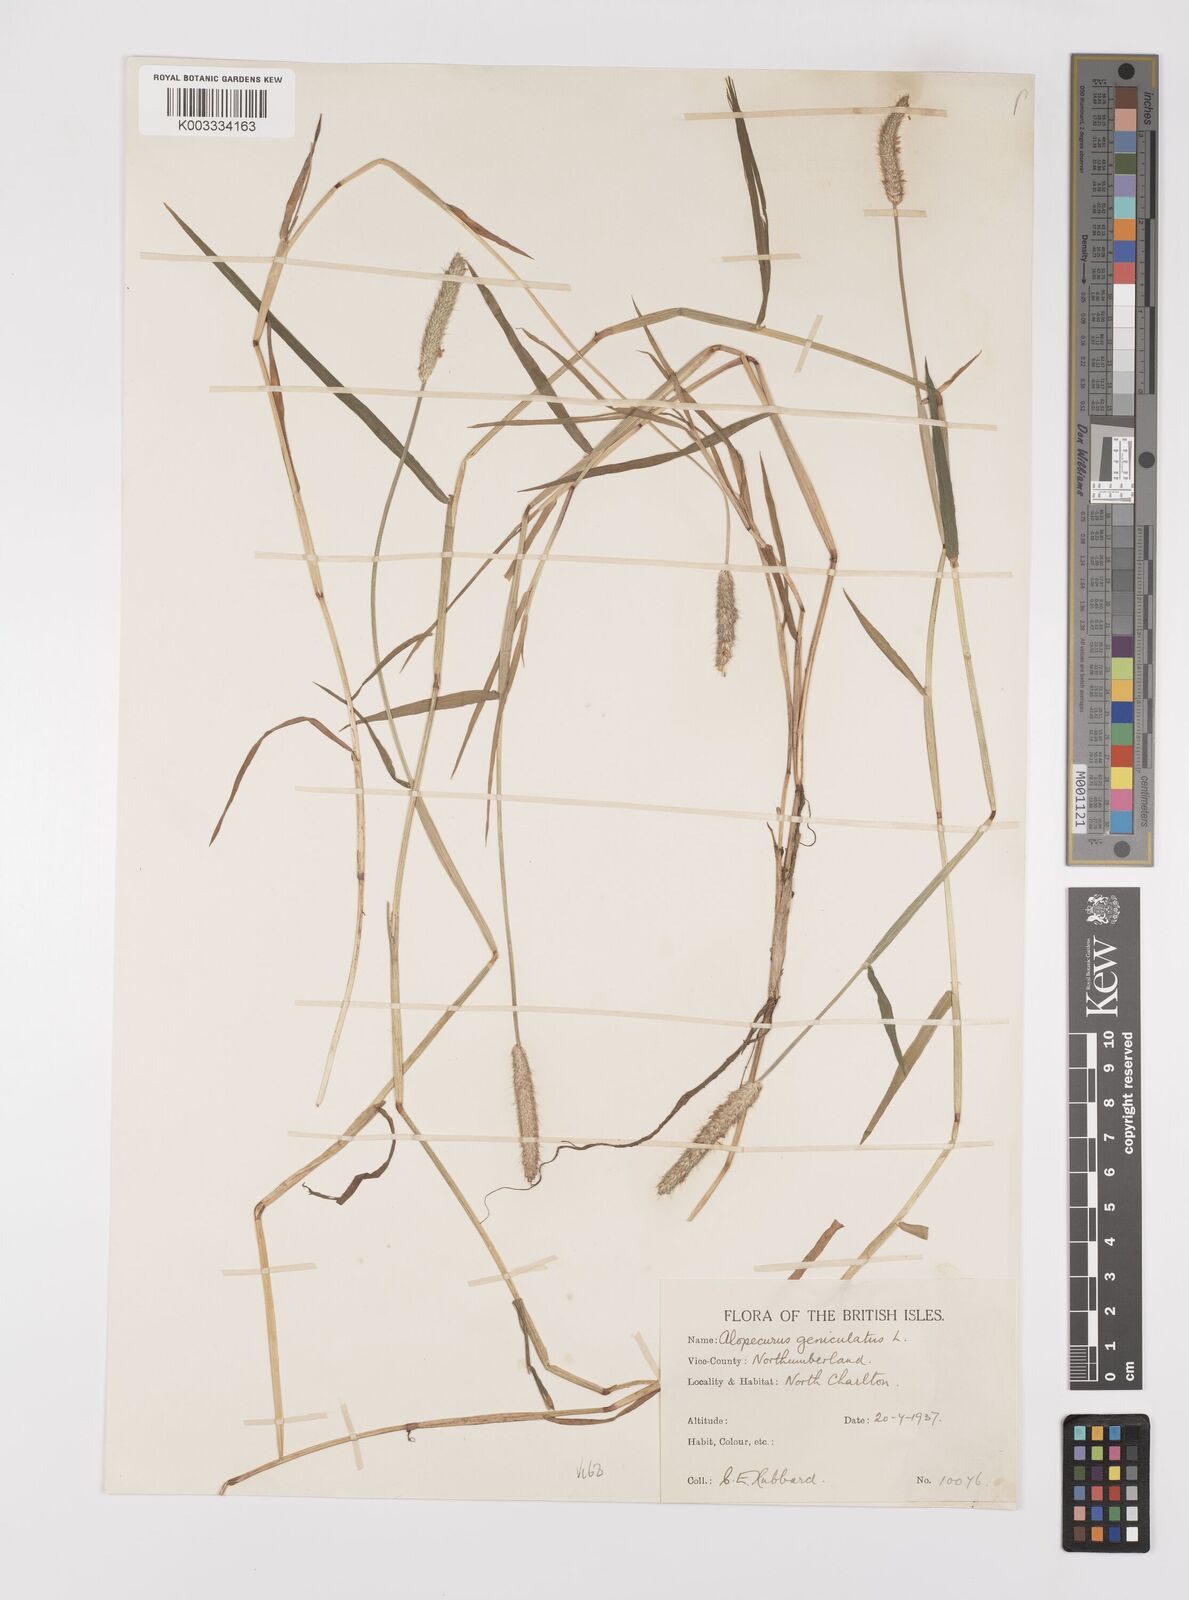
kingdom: Plantae
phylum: Tracheophyta
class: Liliopsida
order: Poales
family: Poaceae
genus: Alopecurus
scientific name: Alopecurus geniculatus
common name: Water foxtail
